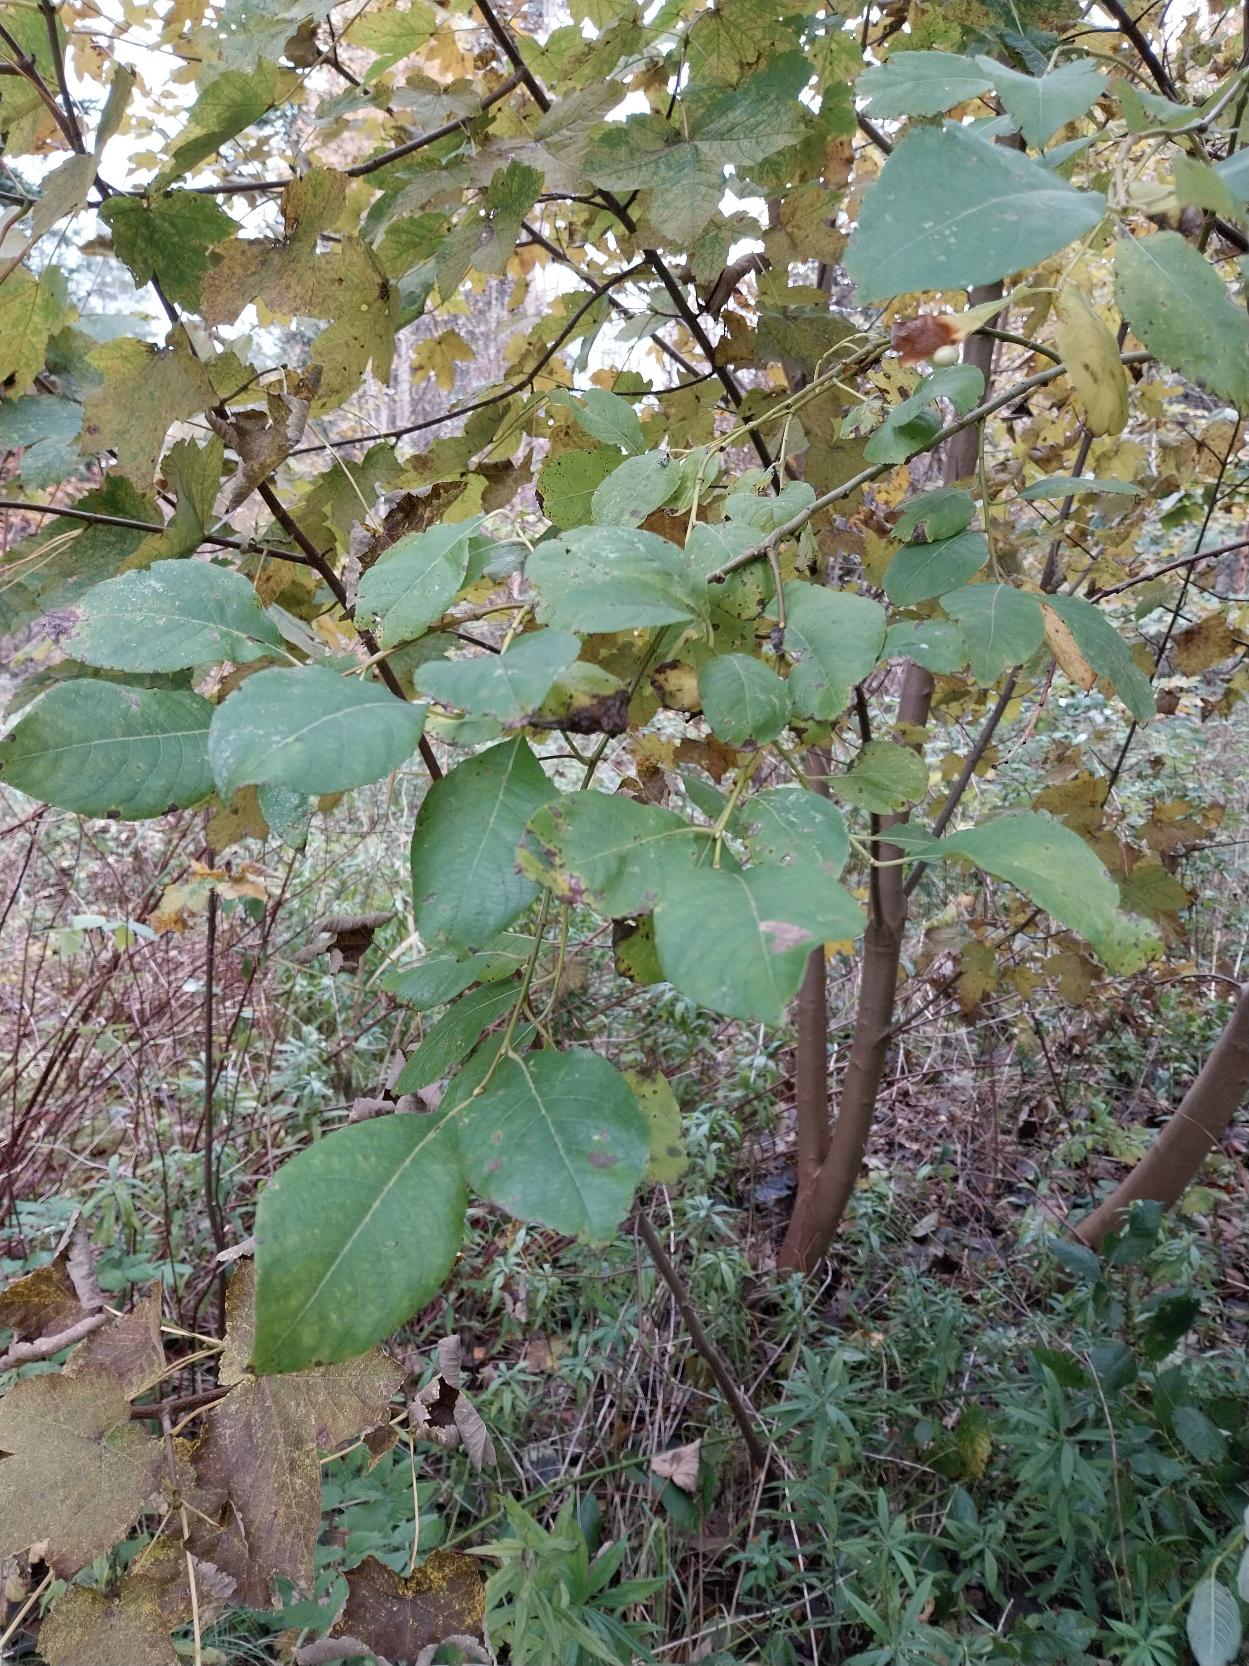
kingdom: Plantae
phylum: Tracheophyta
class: Magnoliopsida
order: Malpighiales
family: Salicaceae
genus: Salix
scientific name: Salix caprea
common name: Selje-pil
